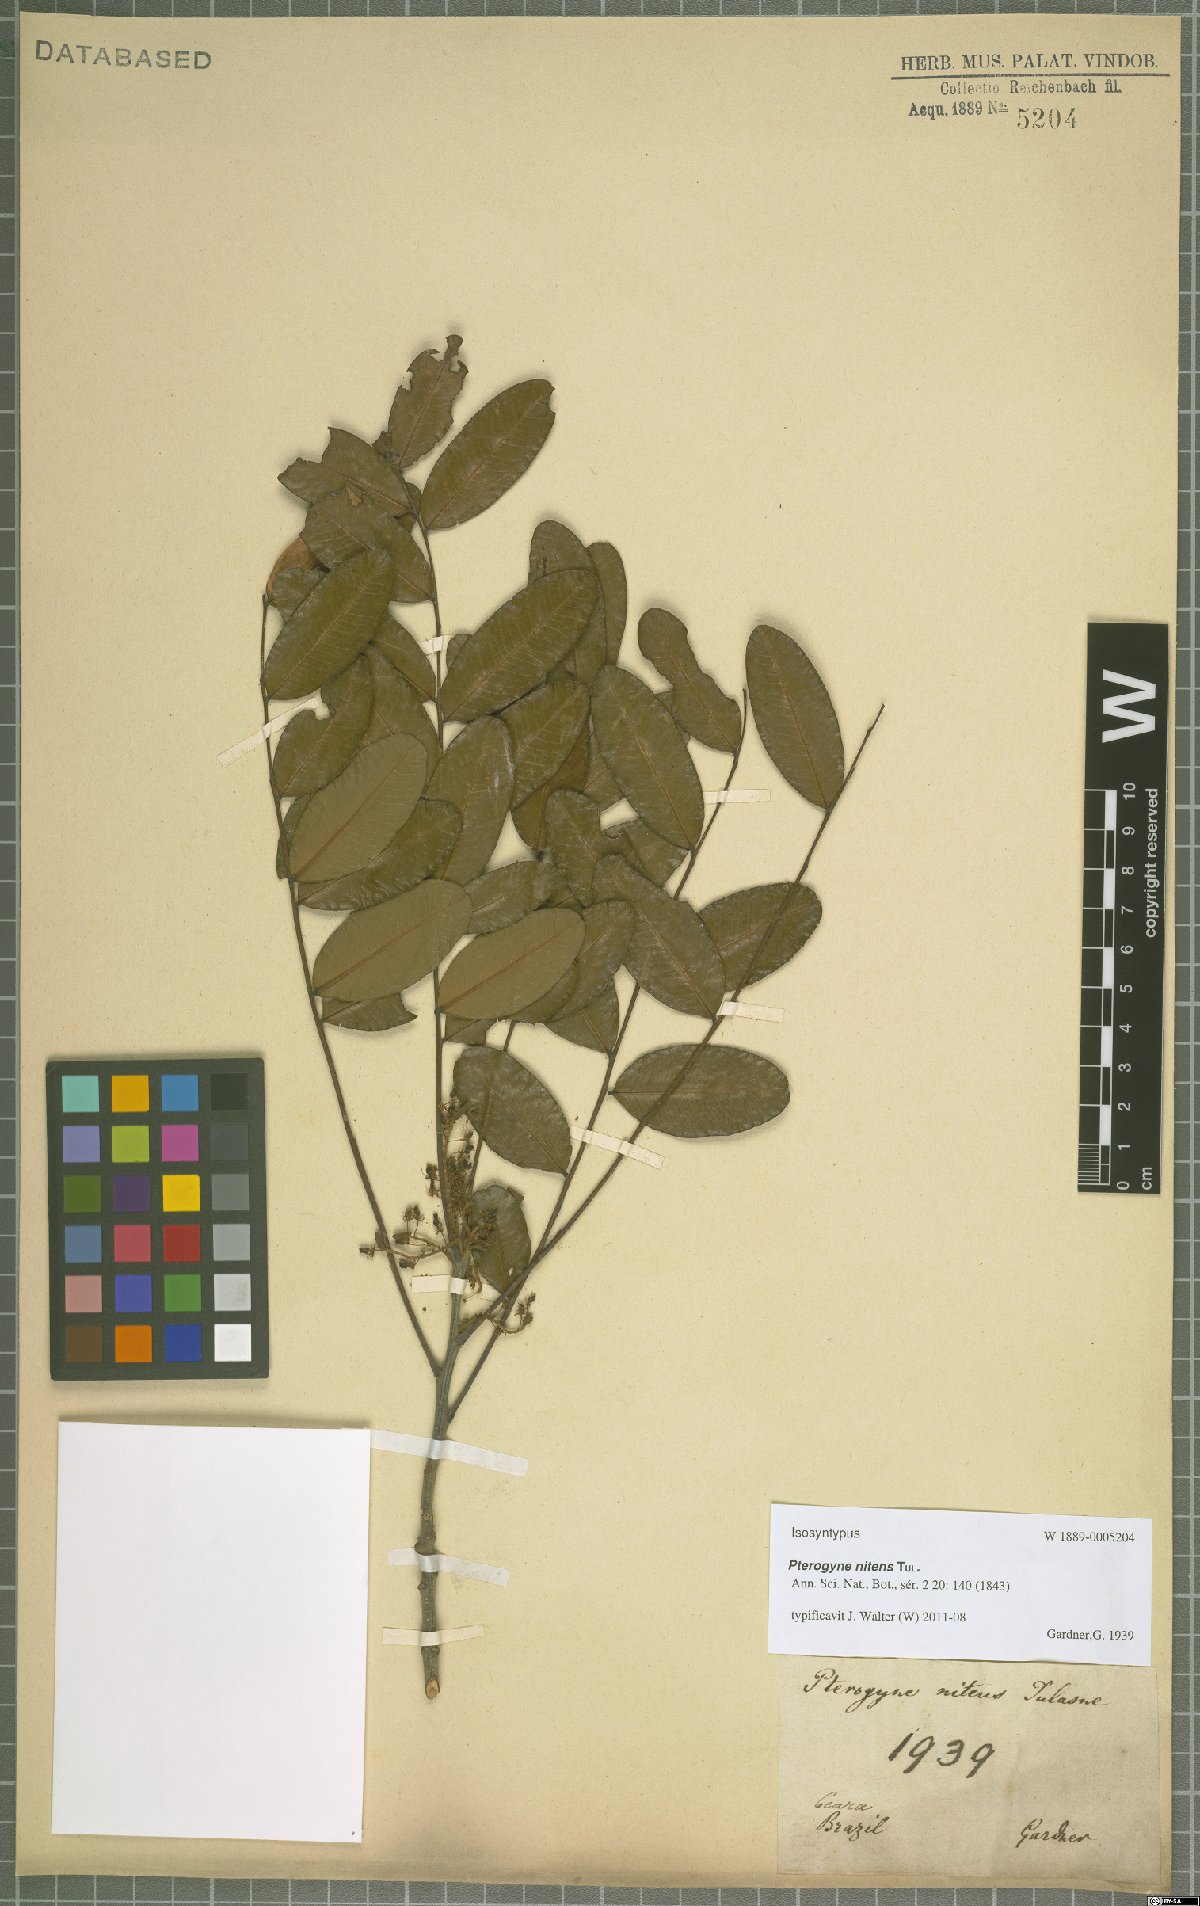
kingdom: Plantae
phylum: Tracheophyta
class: Magnoliopsida
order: Fabales
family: Fabaceae
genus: Pterogyne
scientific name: Pterogyne nitens
